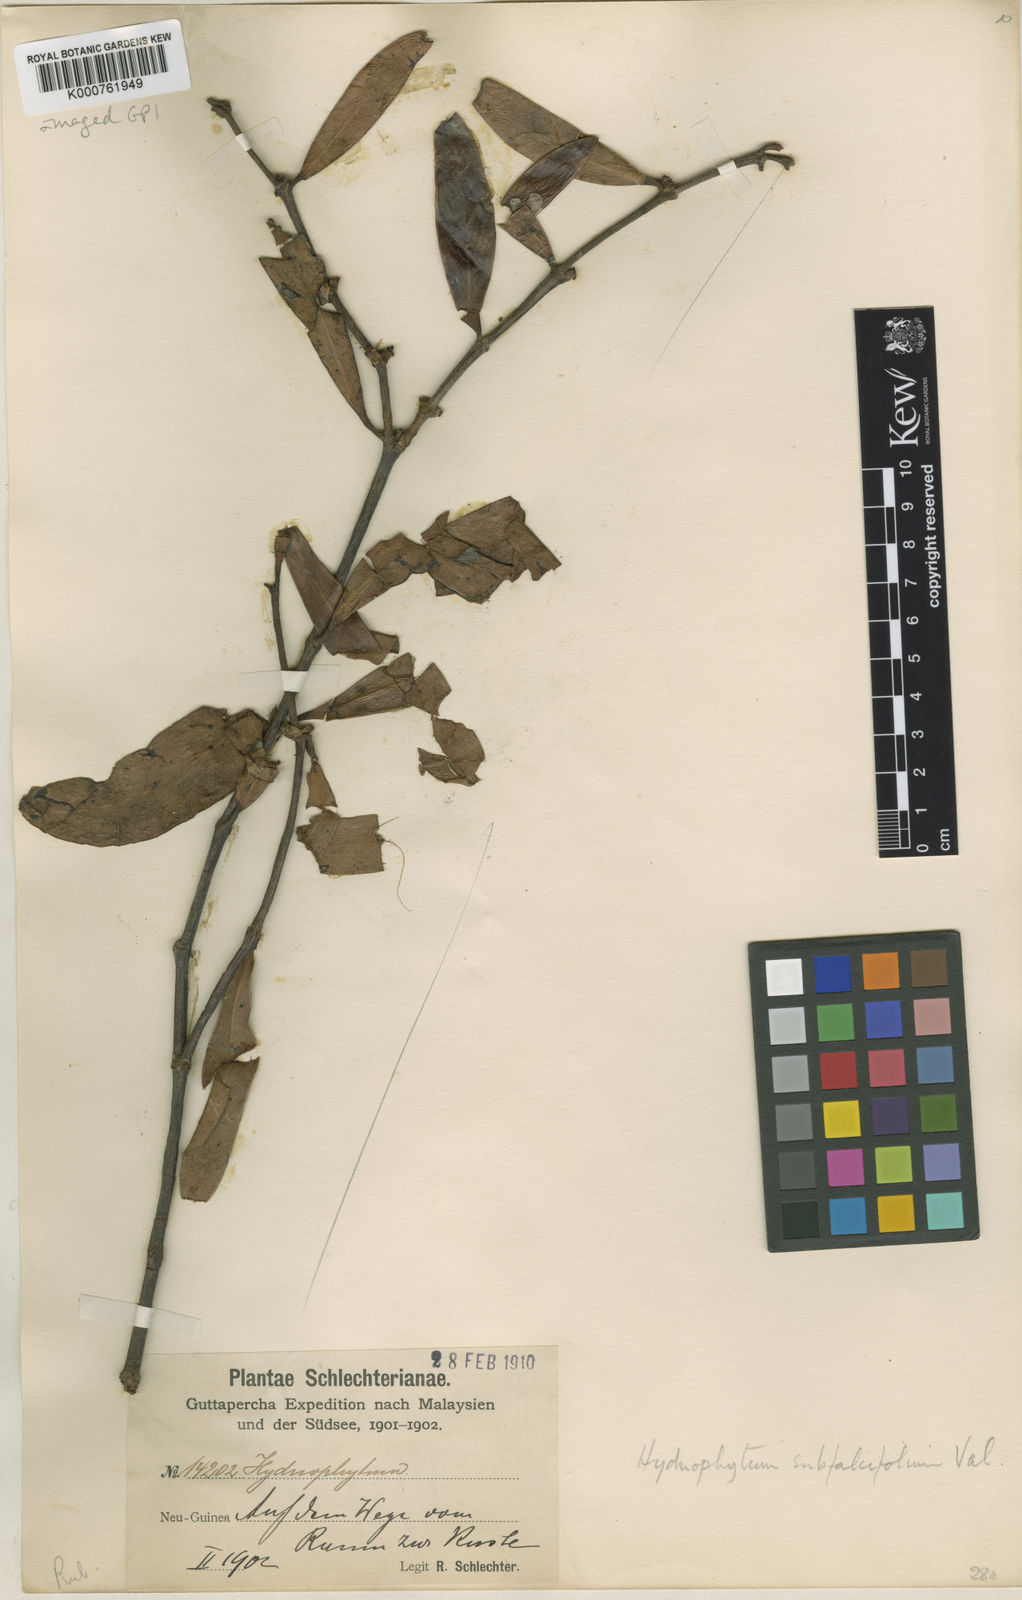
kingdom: Plantae
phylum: Tracheophyta
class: Magnoliopsida
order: Gentianales
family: Rubiaceae
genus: Hydnophytum
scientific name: Hydnophytum moseleyanum
